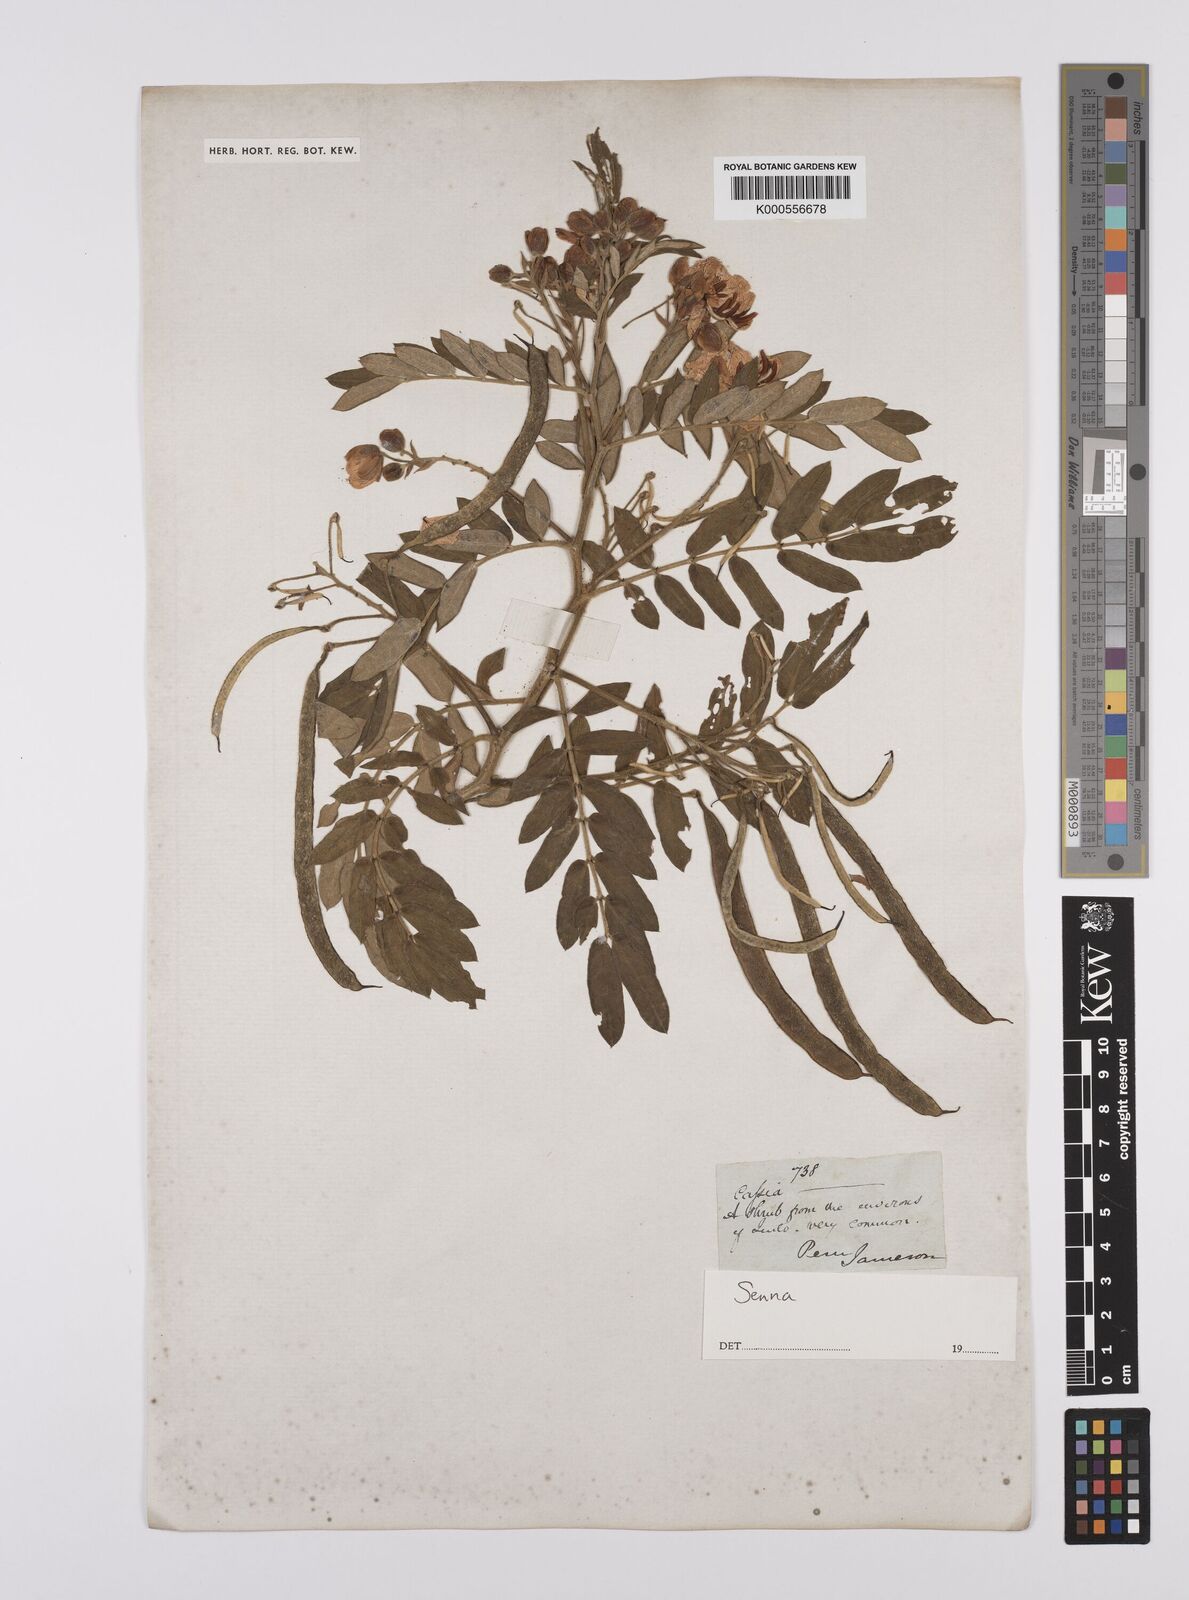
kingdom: Plantae
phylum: Tracheophyta
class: Magnoliopsida
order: Fabales
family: Fabaceae
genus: Senna
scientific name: Senna
